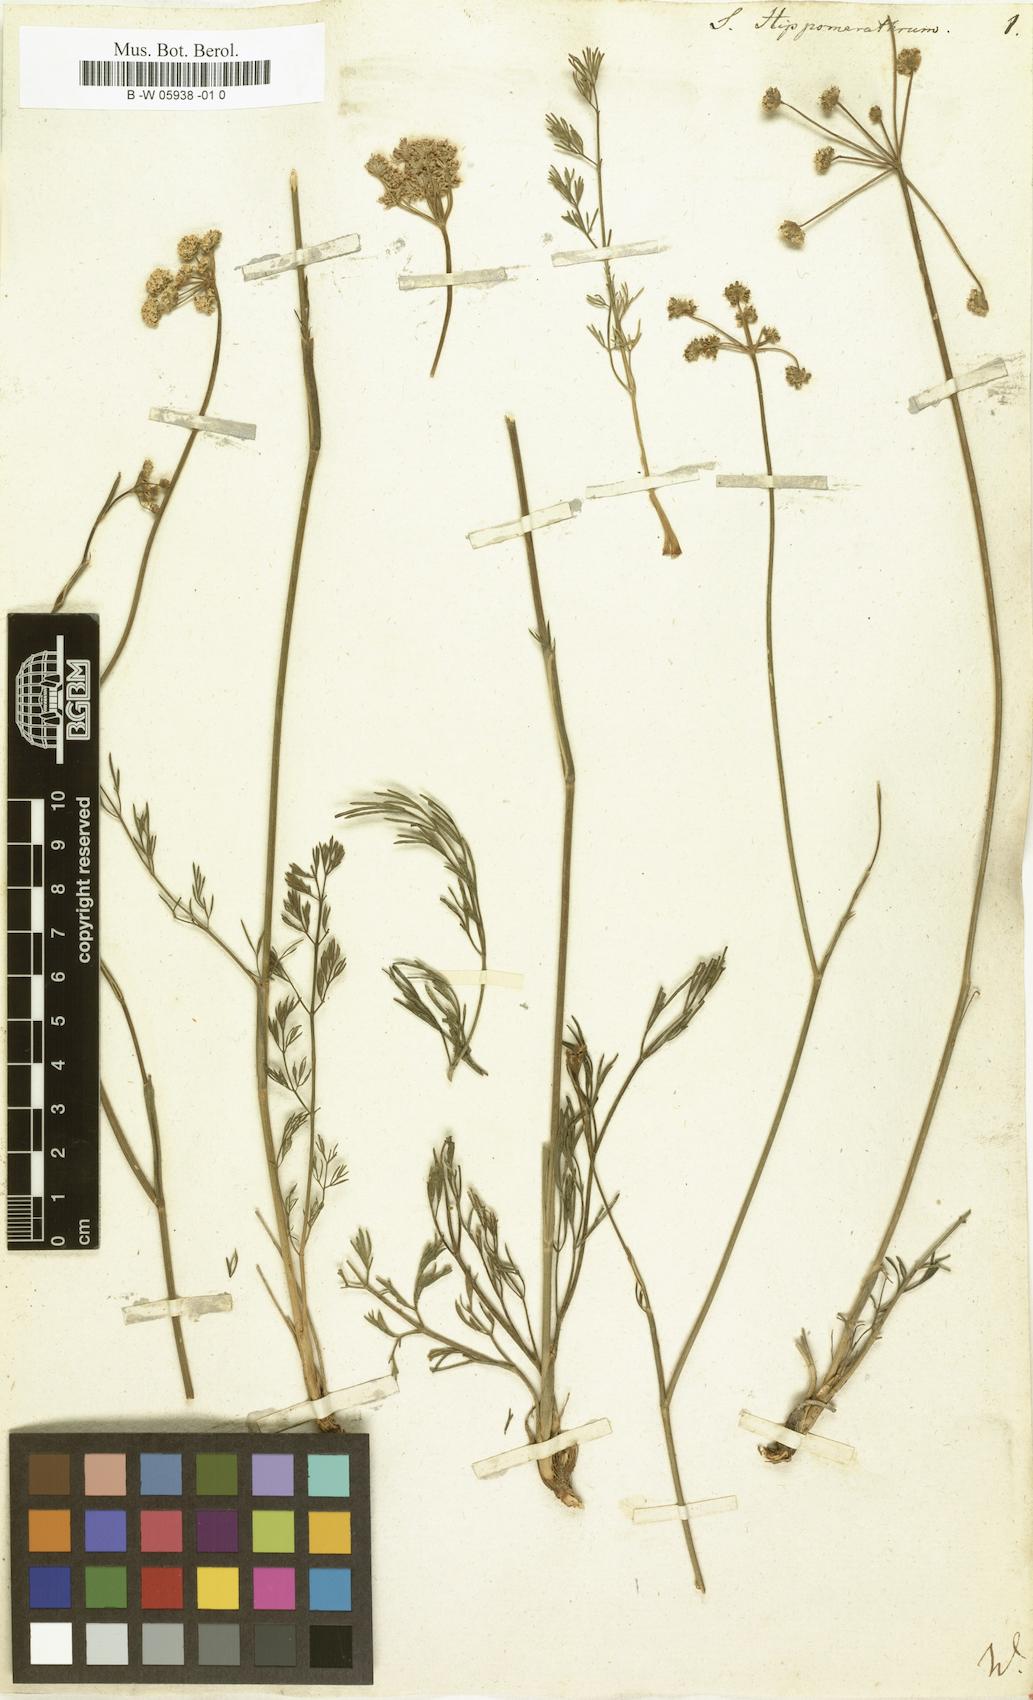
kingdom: Plantae
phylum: Tracheophyta
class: Magnoliopsida
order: Apiales
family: Apiaceae
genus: Hippomarathrum
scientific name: Hippomarathrum vulgare
